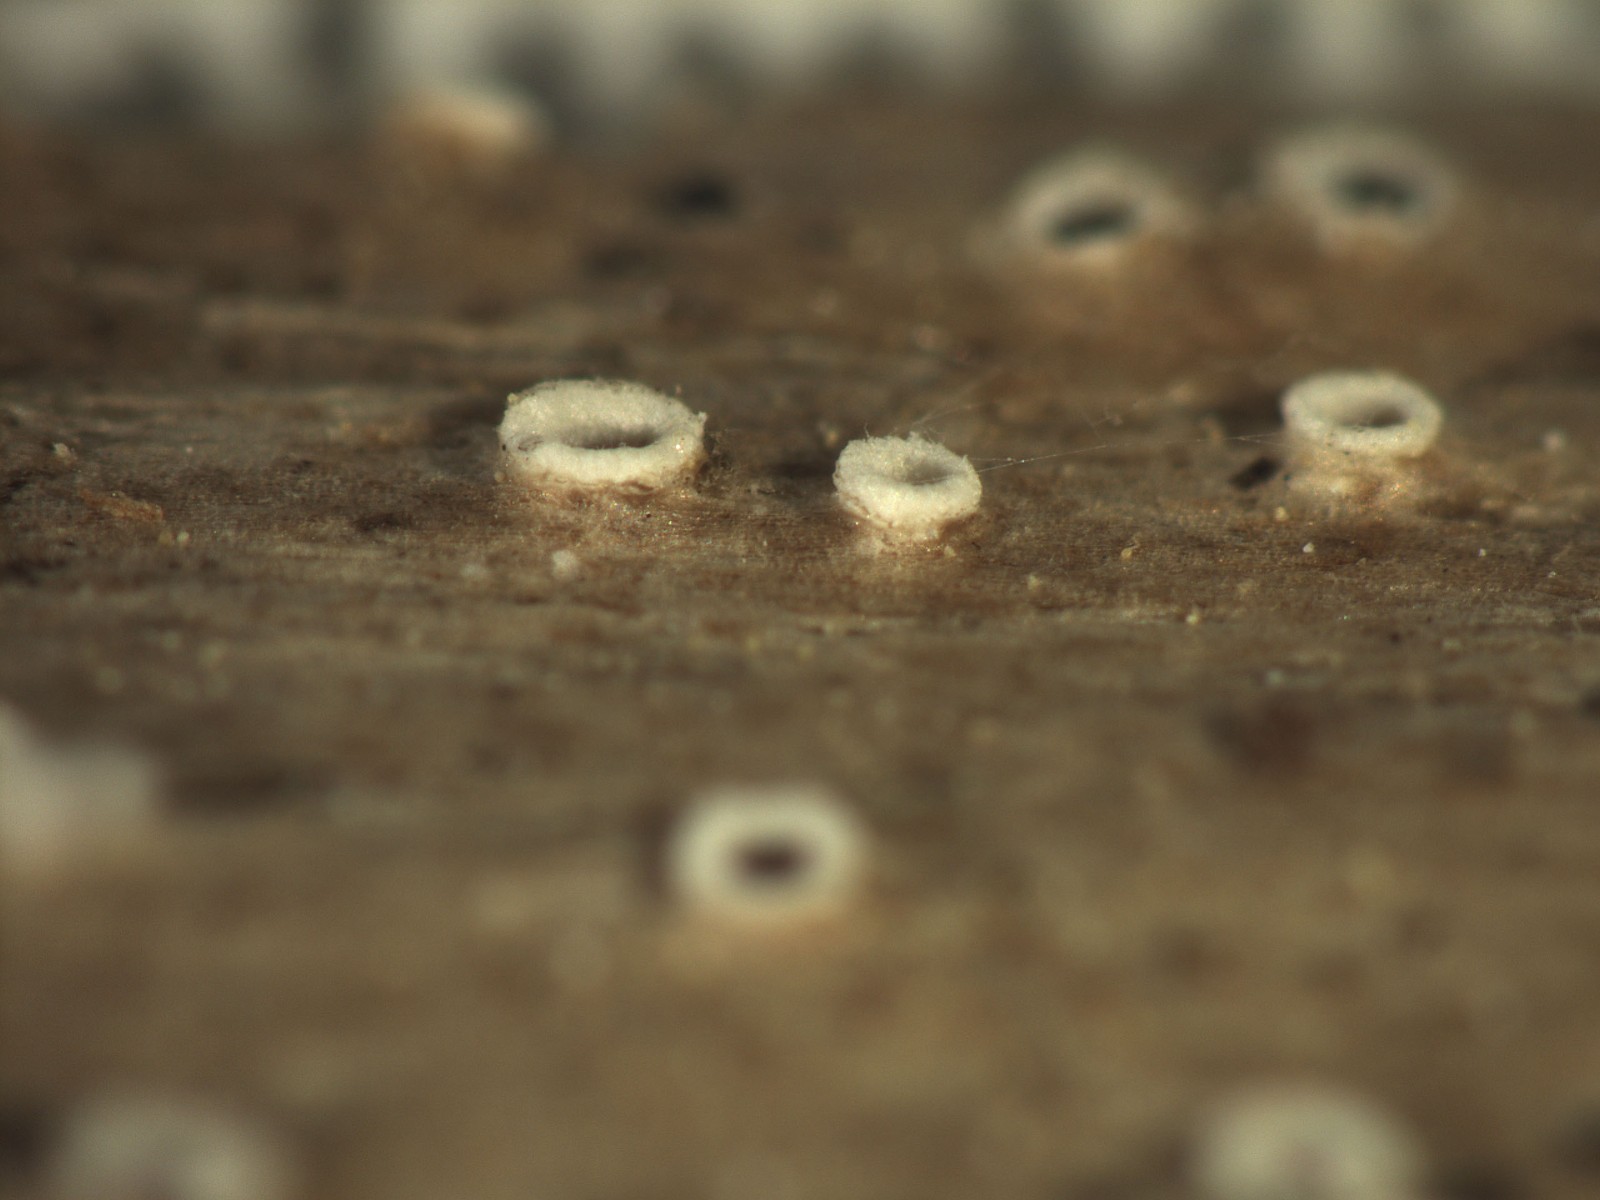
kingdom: Fungi
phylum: Ascomycota
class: Lecanoromycetes
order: Ostropales
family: Stictidaceae
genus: Stictis
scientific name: Stictis
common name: barkhul
